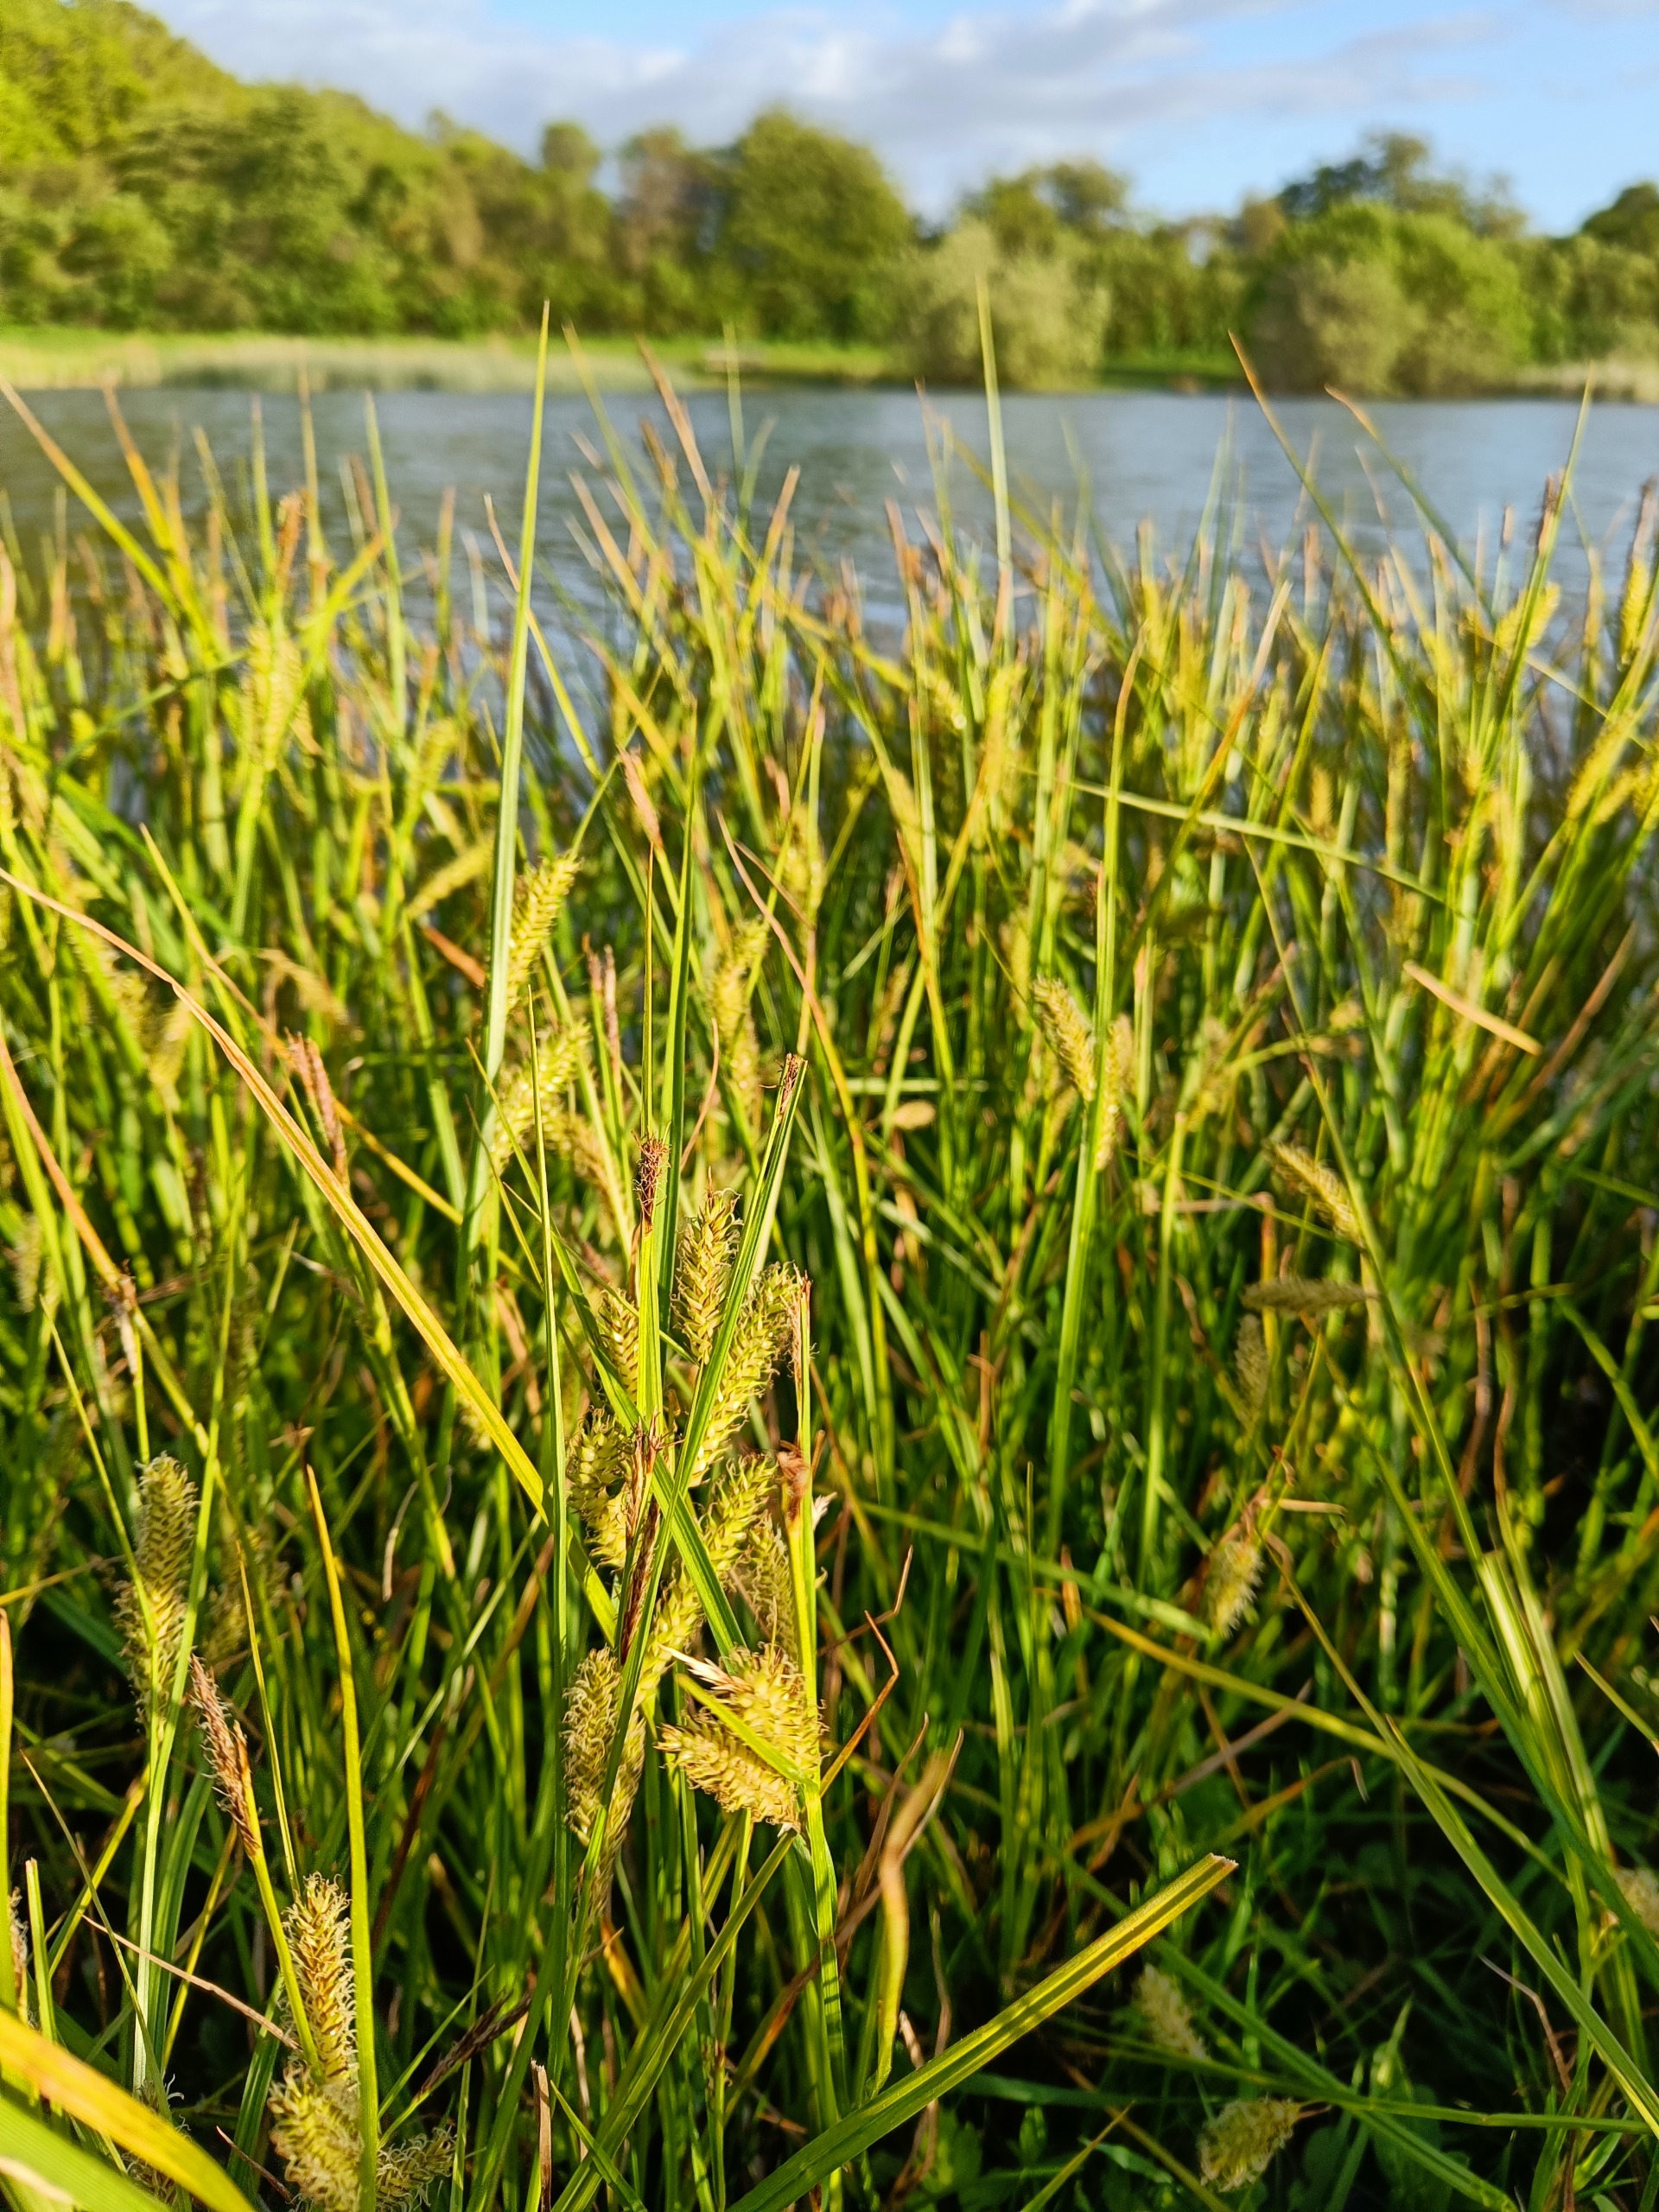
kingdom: Plantae
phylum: Tracheophyta
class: Liliopsida
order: Poales
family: Cyperaceae
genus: Carex
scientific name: Carex vesicaria
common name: Blære-star
